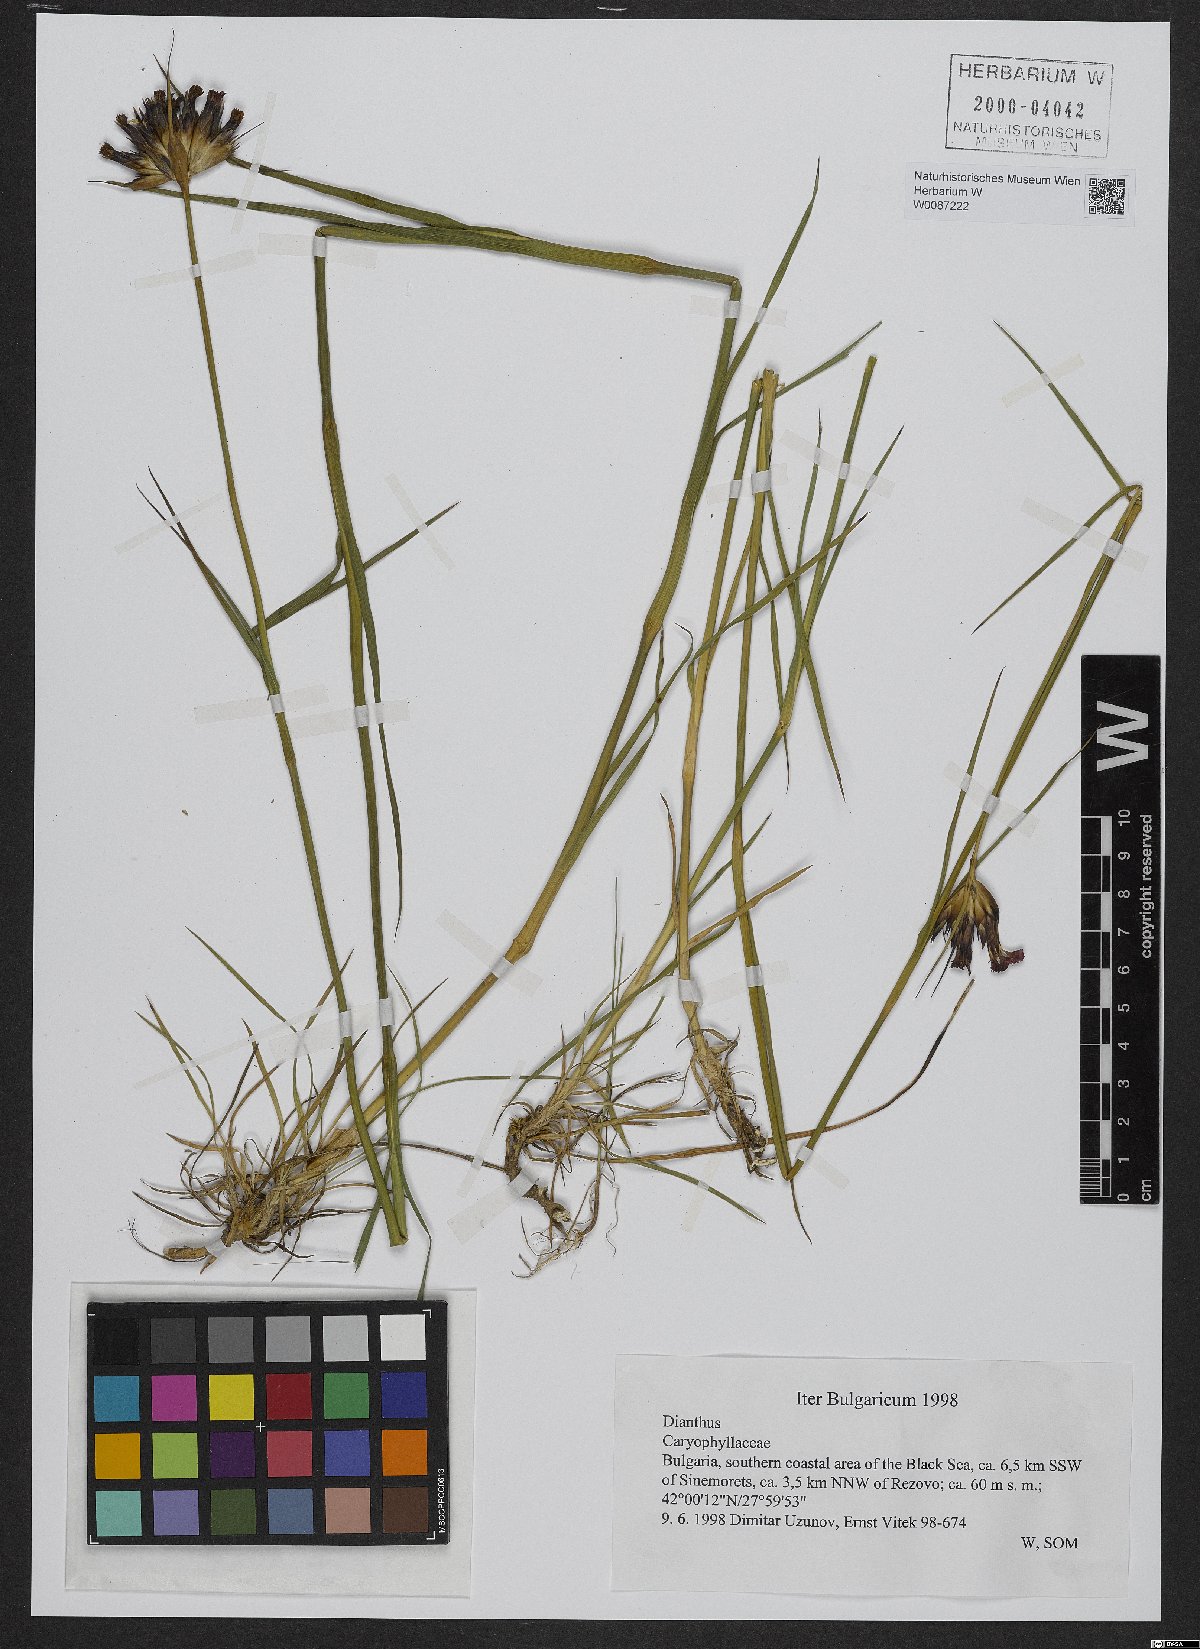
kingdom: Plantae
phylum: Tracheophyta
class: Magnoliopsida
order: Caryophyllales
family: Caryophyllaceae
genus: Dianthus
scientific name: Dianthus giganteus
